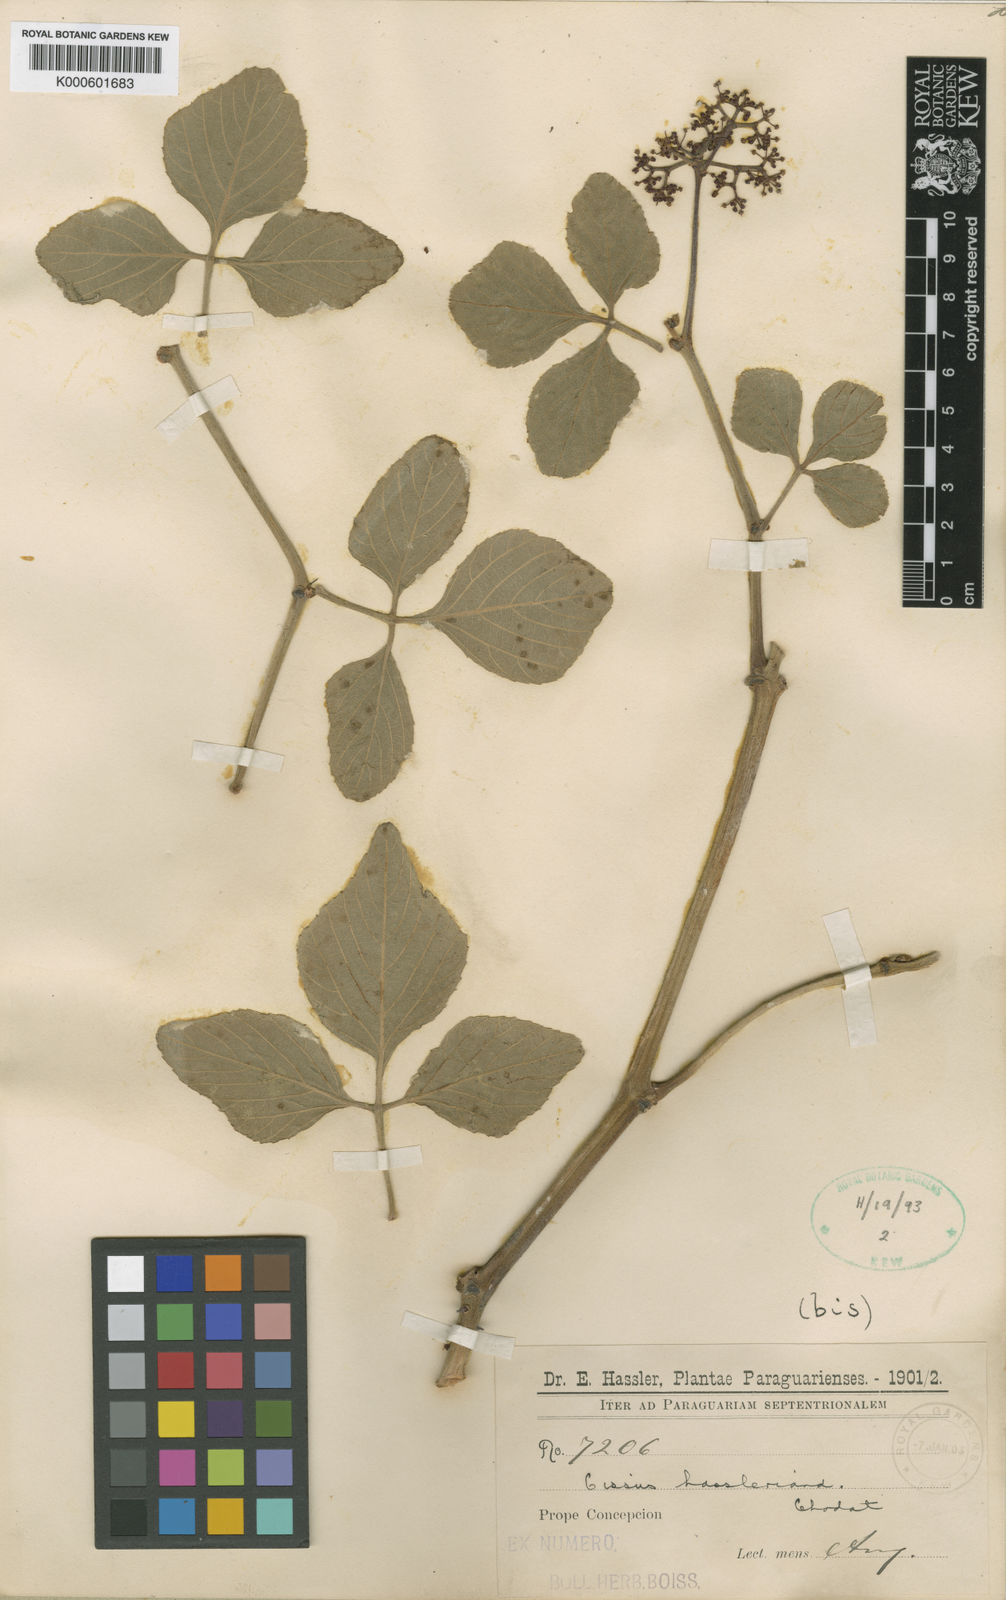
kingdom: Plantae
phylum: Tracheophyta
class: Magnoliopsida
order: Vitales
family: Vitaceae
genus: Cissus
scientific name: Cissus spinosa
